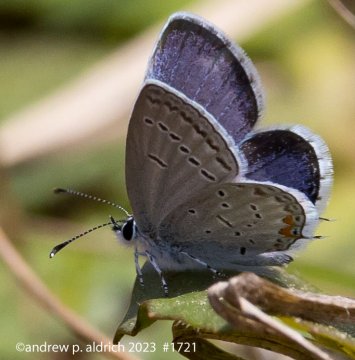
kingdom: Animalia
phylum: Arthropoda
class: Insecta
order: Lepidoptera
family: Lycaenidae
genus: Elkalyce
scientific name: Elkalyce comyntas
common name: Eastern Tailed-Blue
